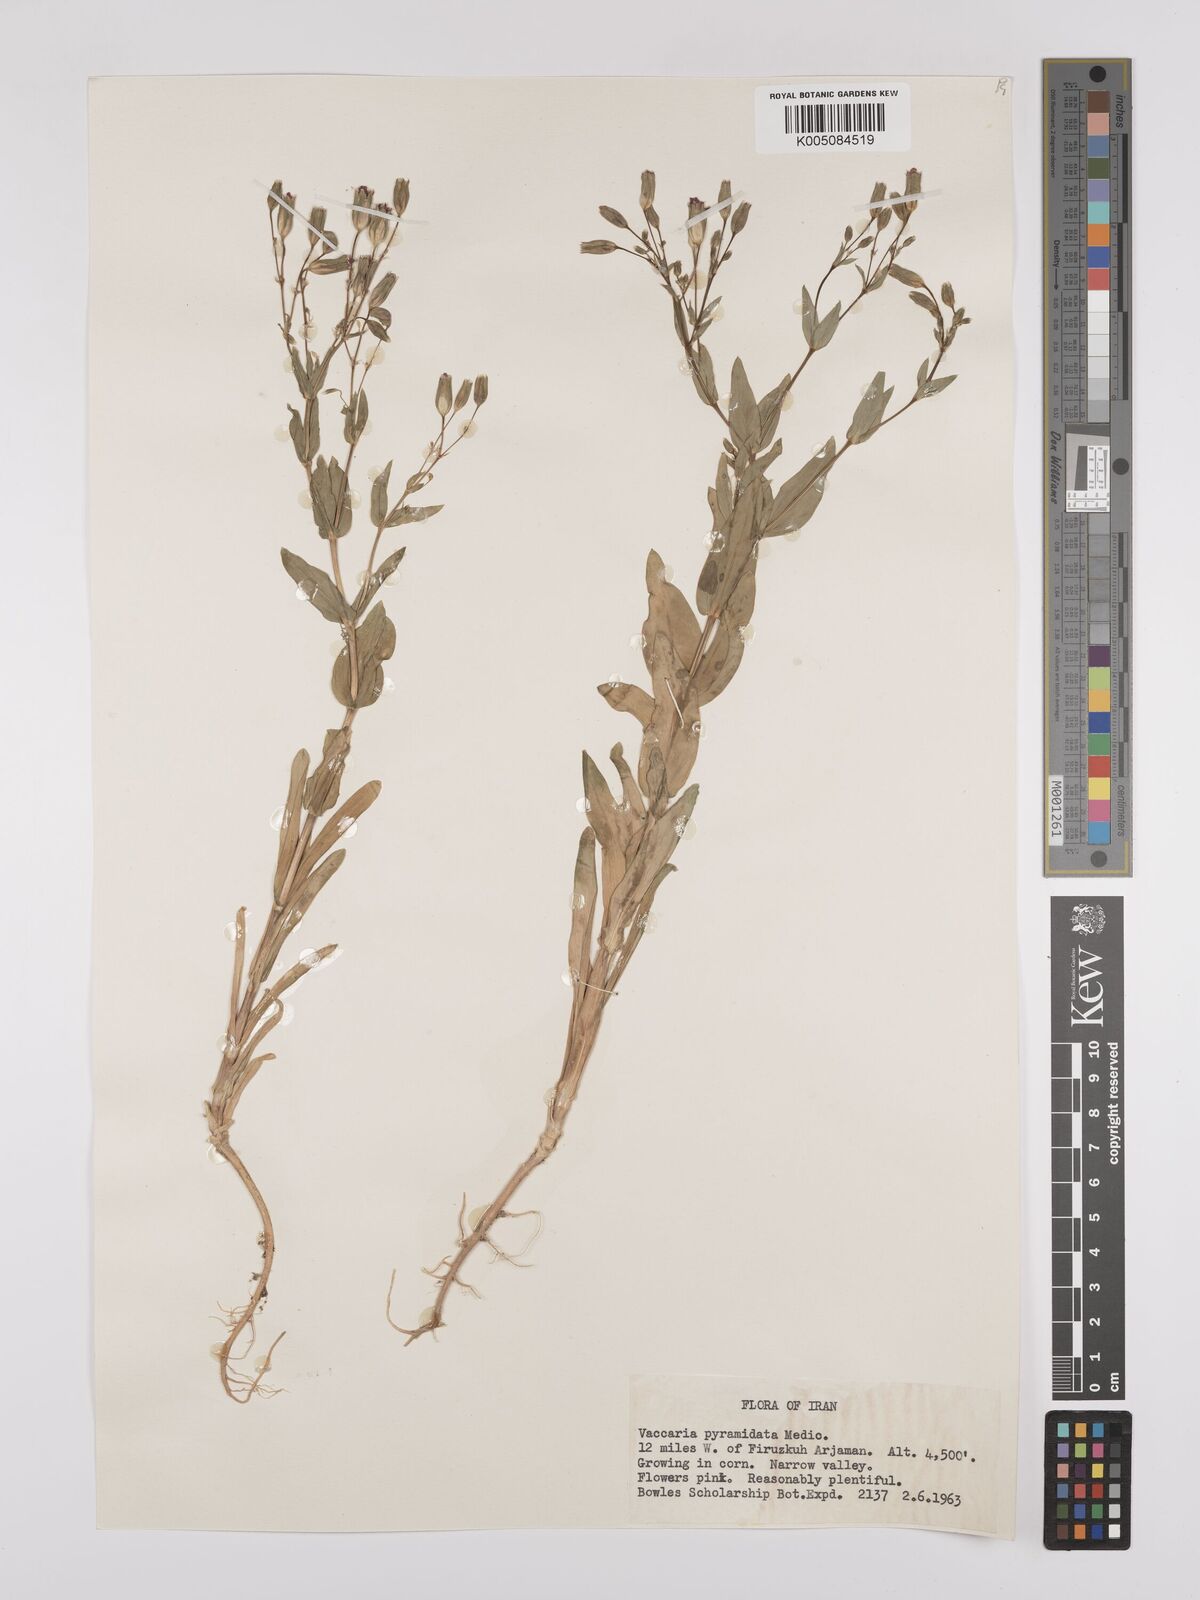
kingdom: Plantae
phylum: Tracheophyta
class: Magnoliopsida
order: Caryophyllales
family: Caryophyllaceae
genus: Gypsophila
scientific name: Gypsophila vaccaria
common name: Cow soapwort
